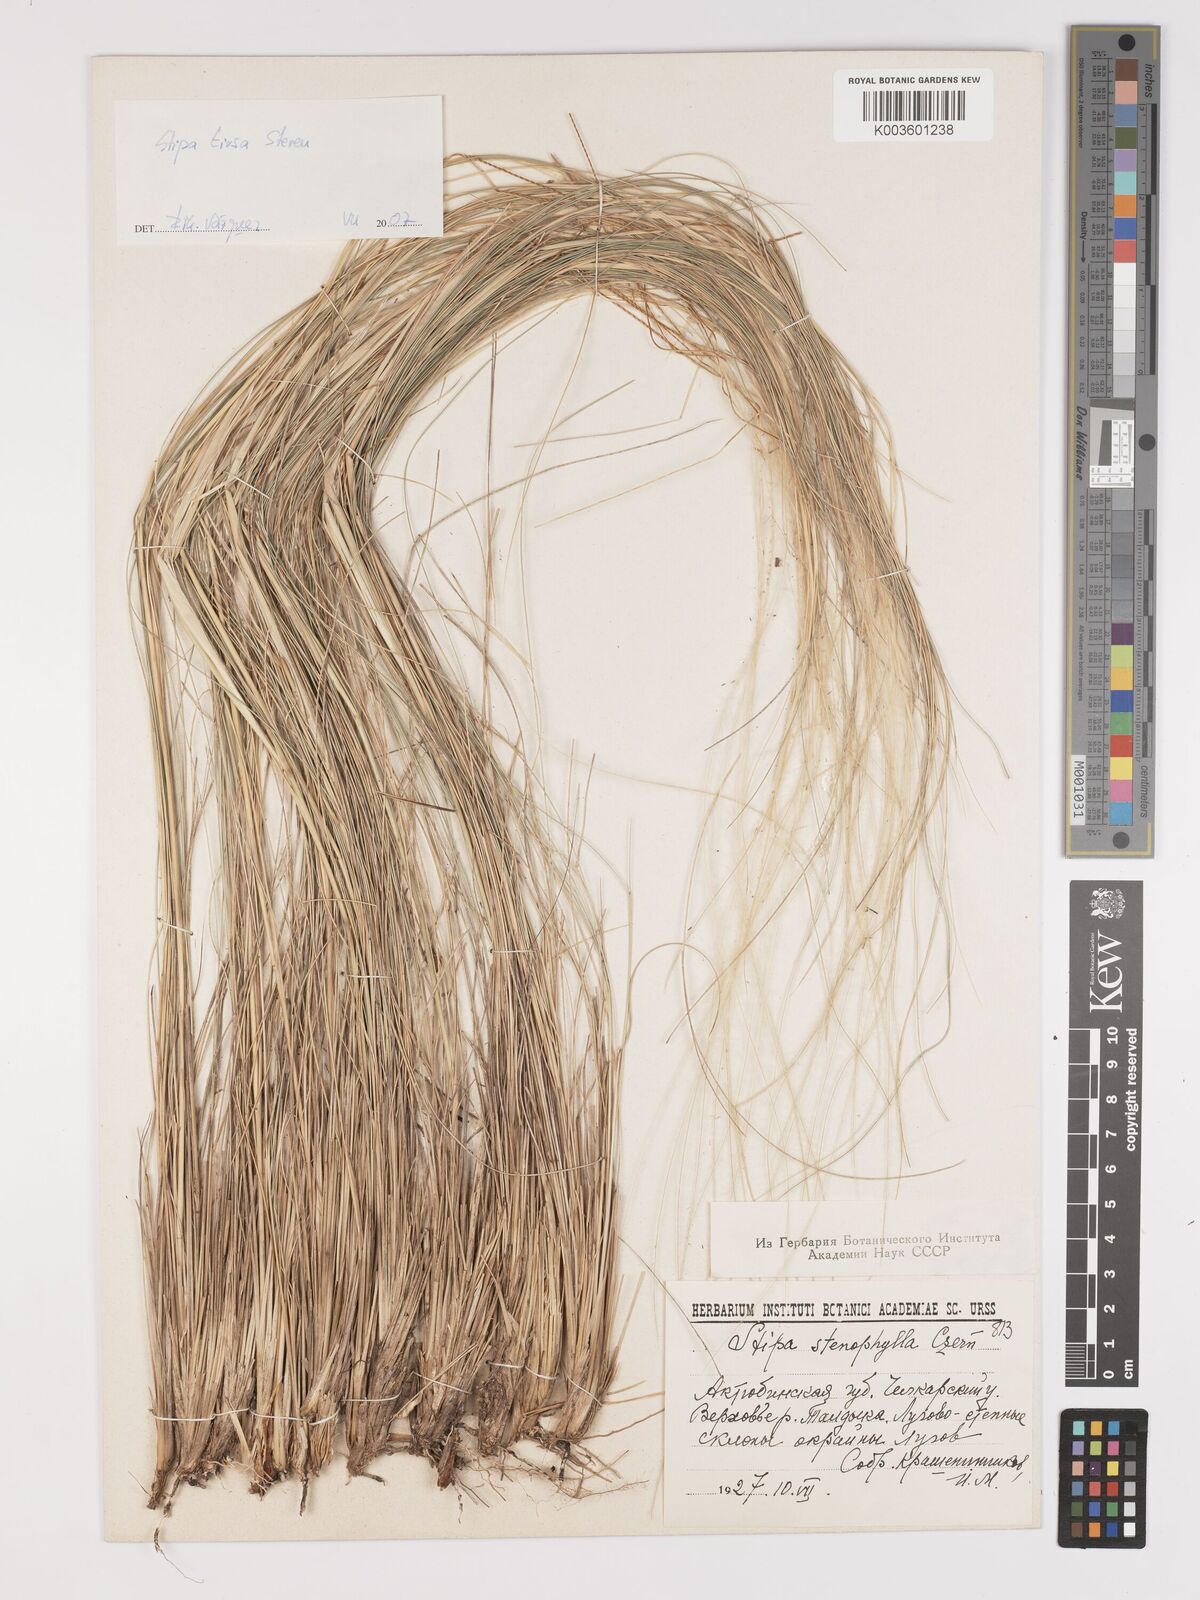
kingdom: Plantae
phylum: Tracheophyta
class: Liliopsida
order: Poales
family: Poaceae
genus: Stipa
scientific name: Stipa tirsa
